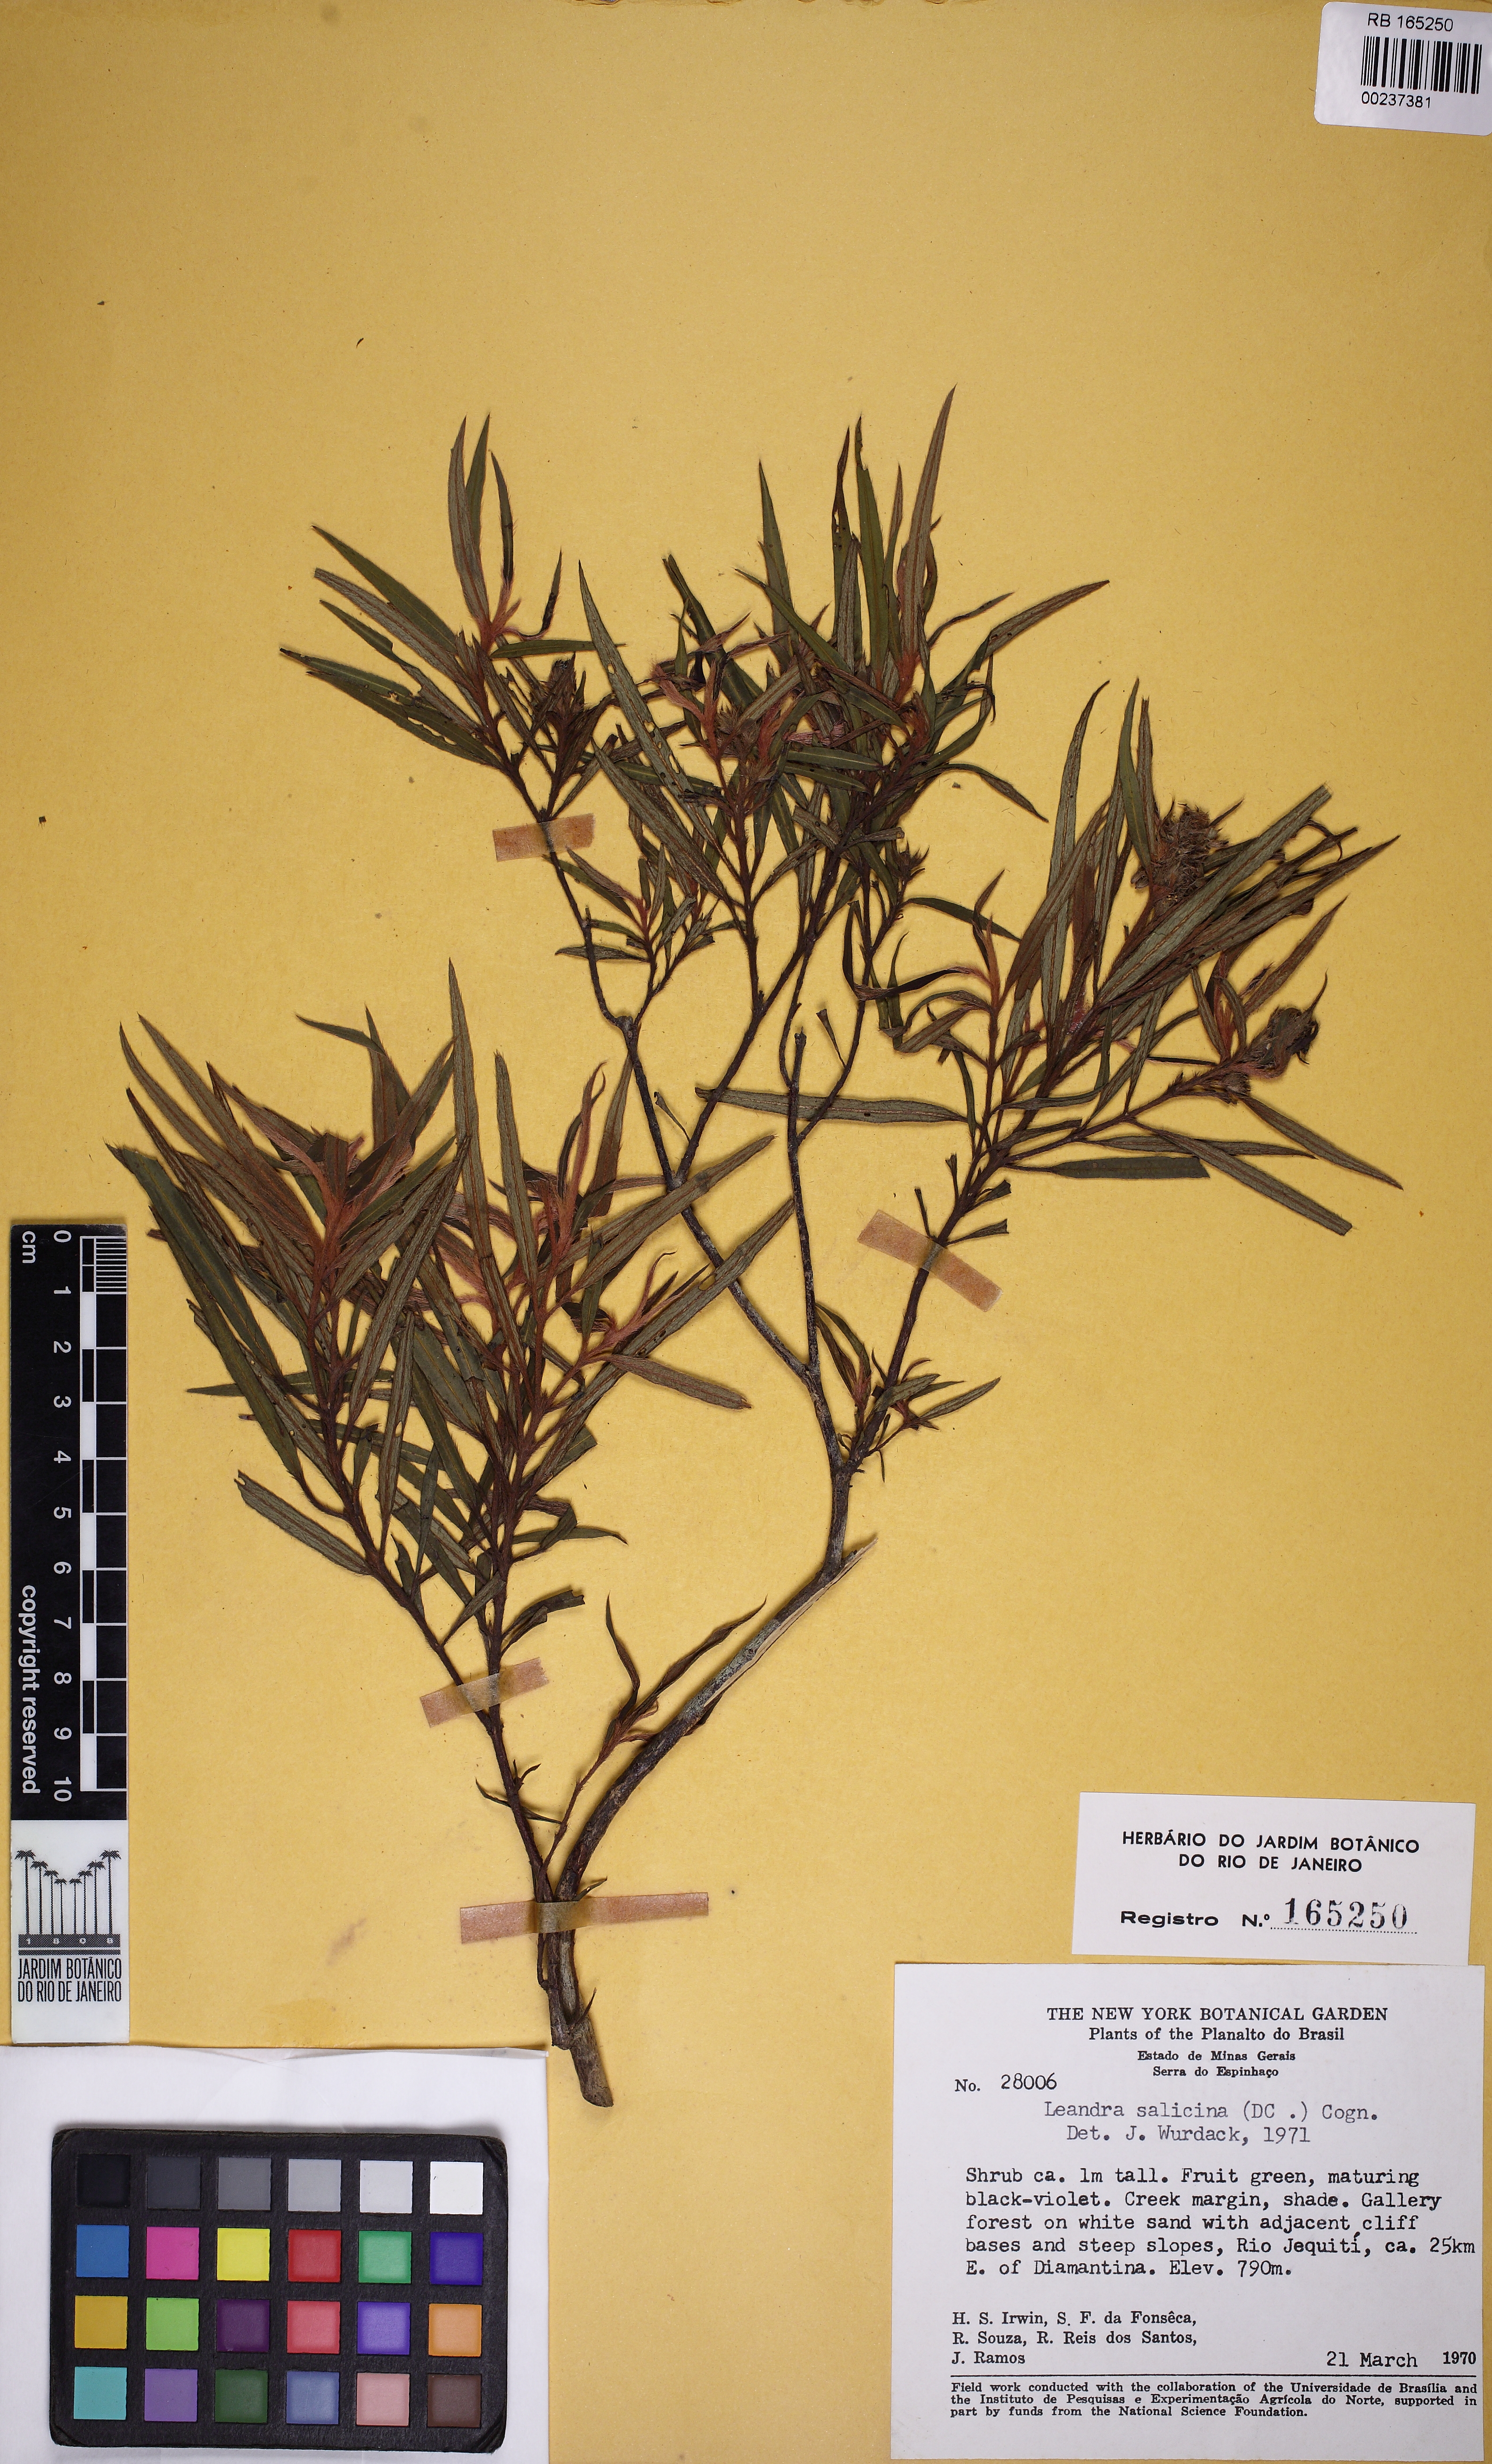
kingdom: Plantae
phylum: Tracheophyta
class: Magnoliopsida
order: Myrtales
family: Melastomataceae
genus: Miconia
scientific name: Miconia salicina
